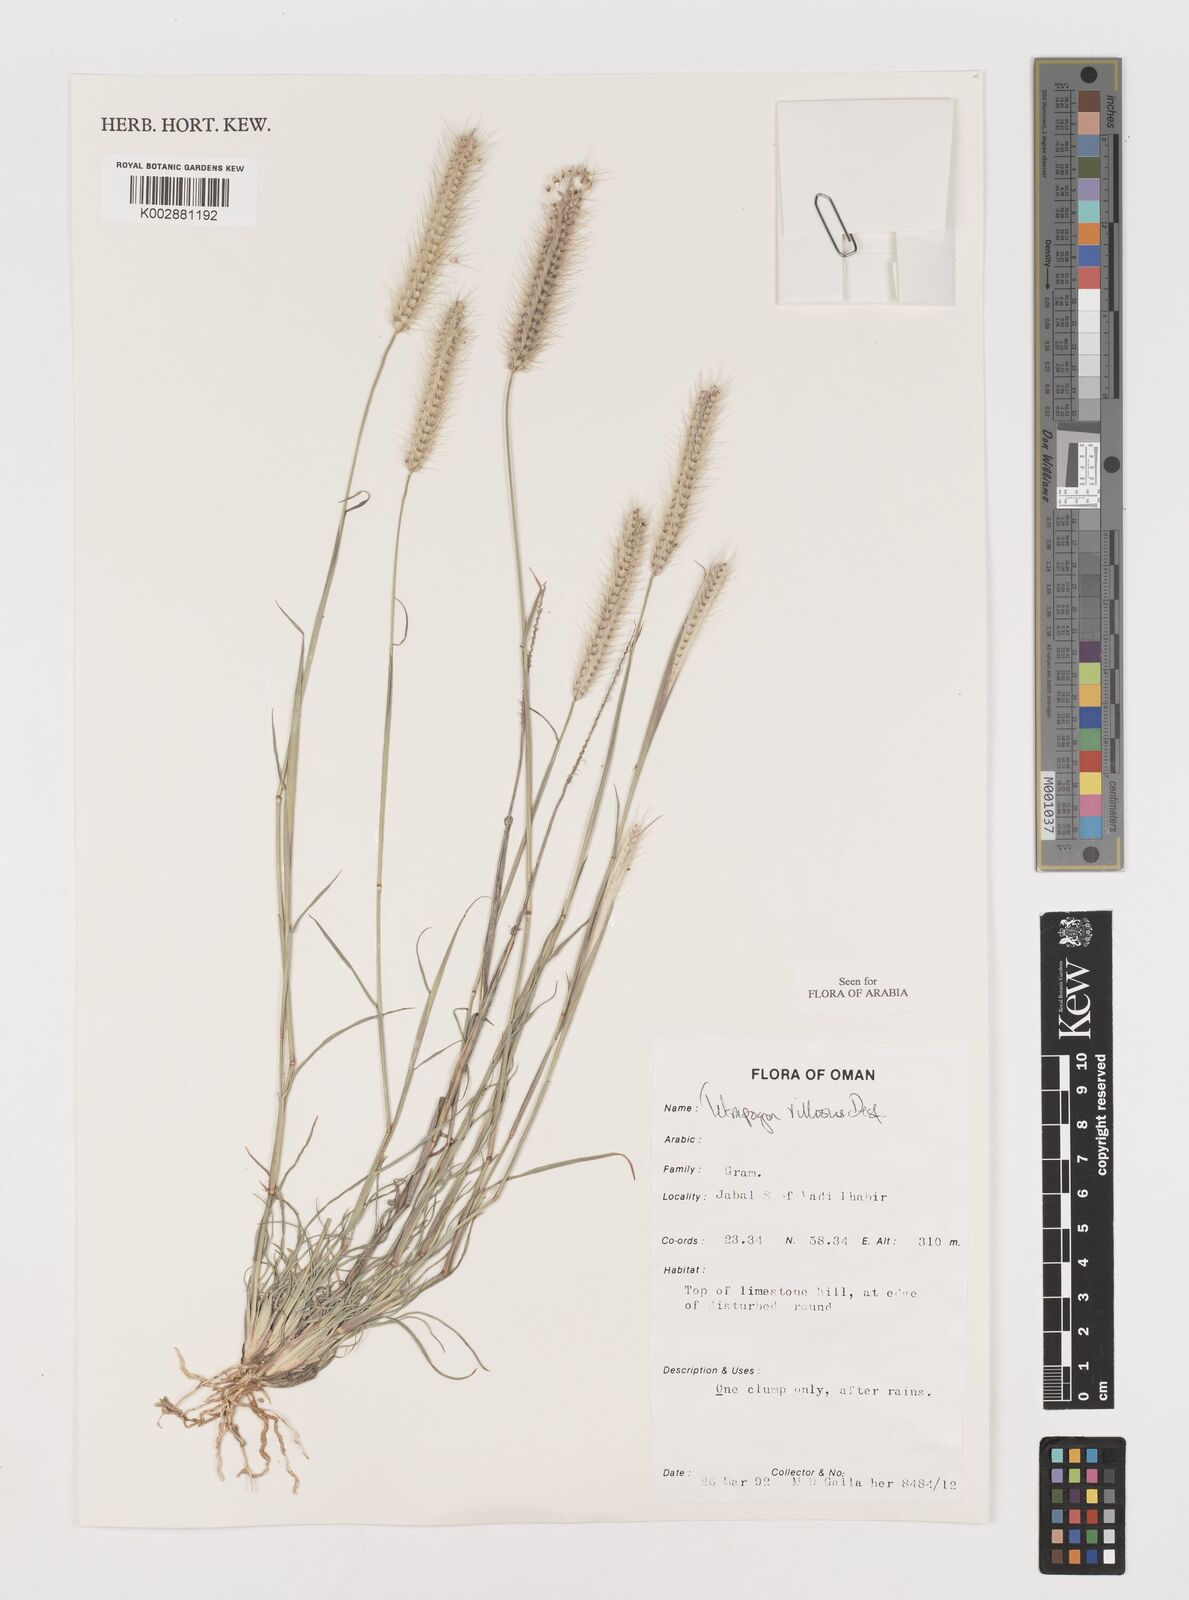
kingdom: Plantae
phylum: Tracheophyta
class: Liliopsida
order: Poales
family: Poaceae
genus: Tetrapogon
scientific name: Tetrapogon villosus
